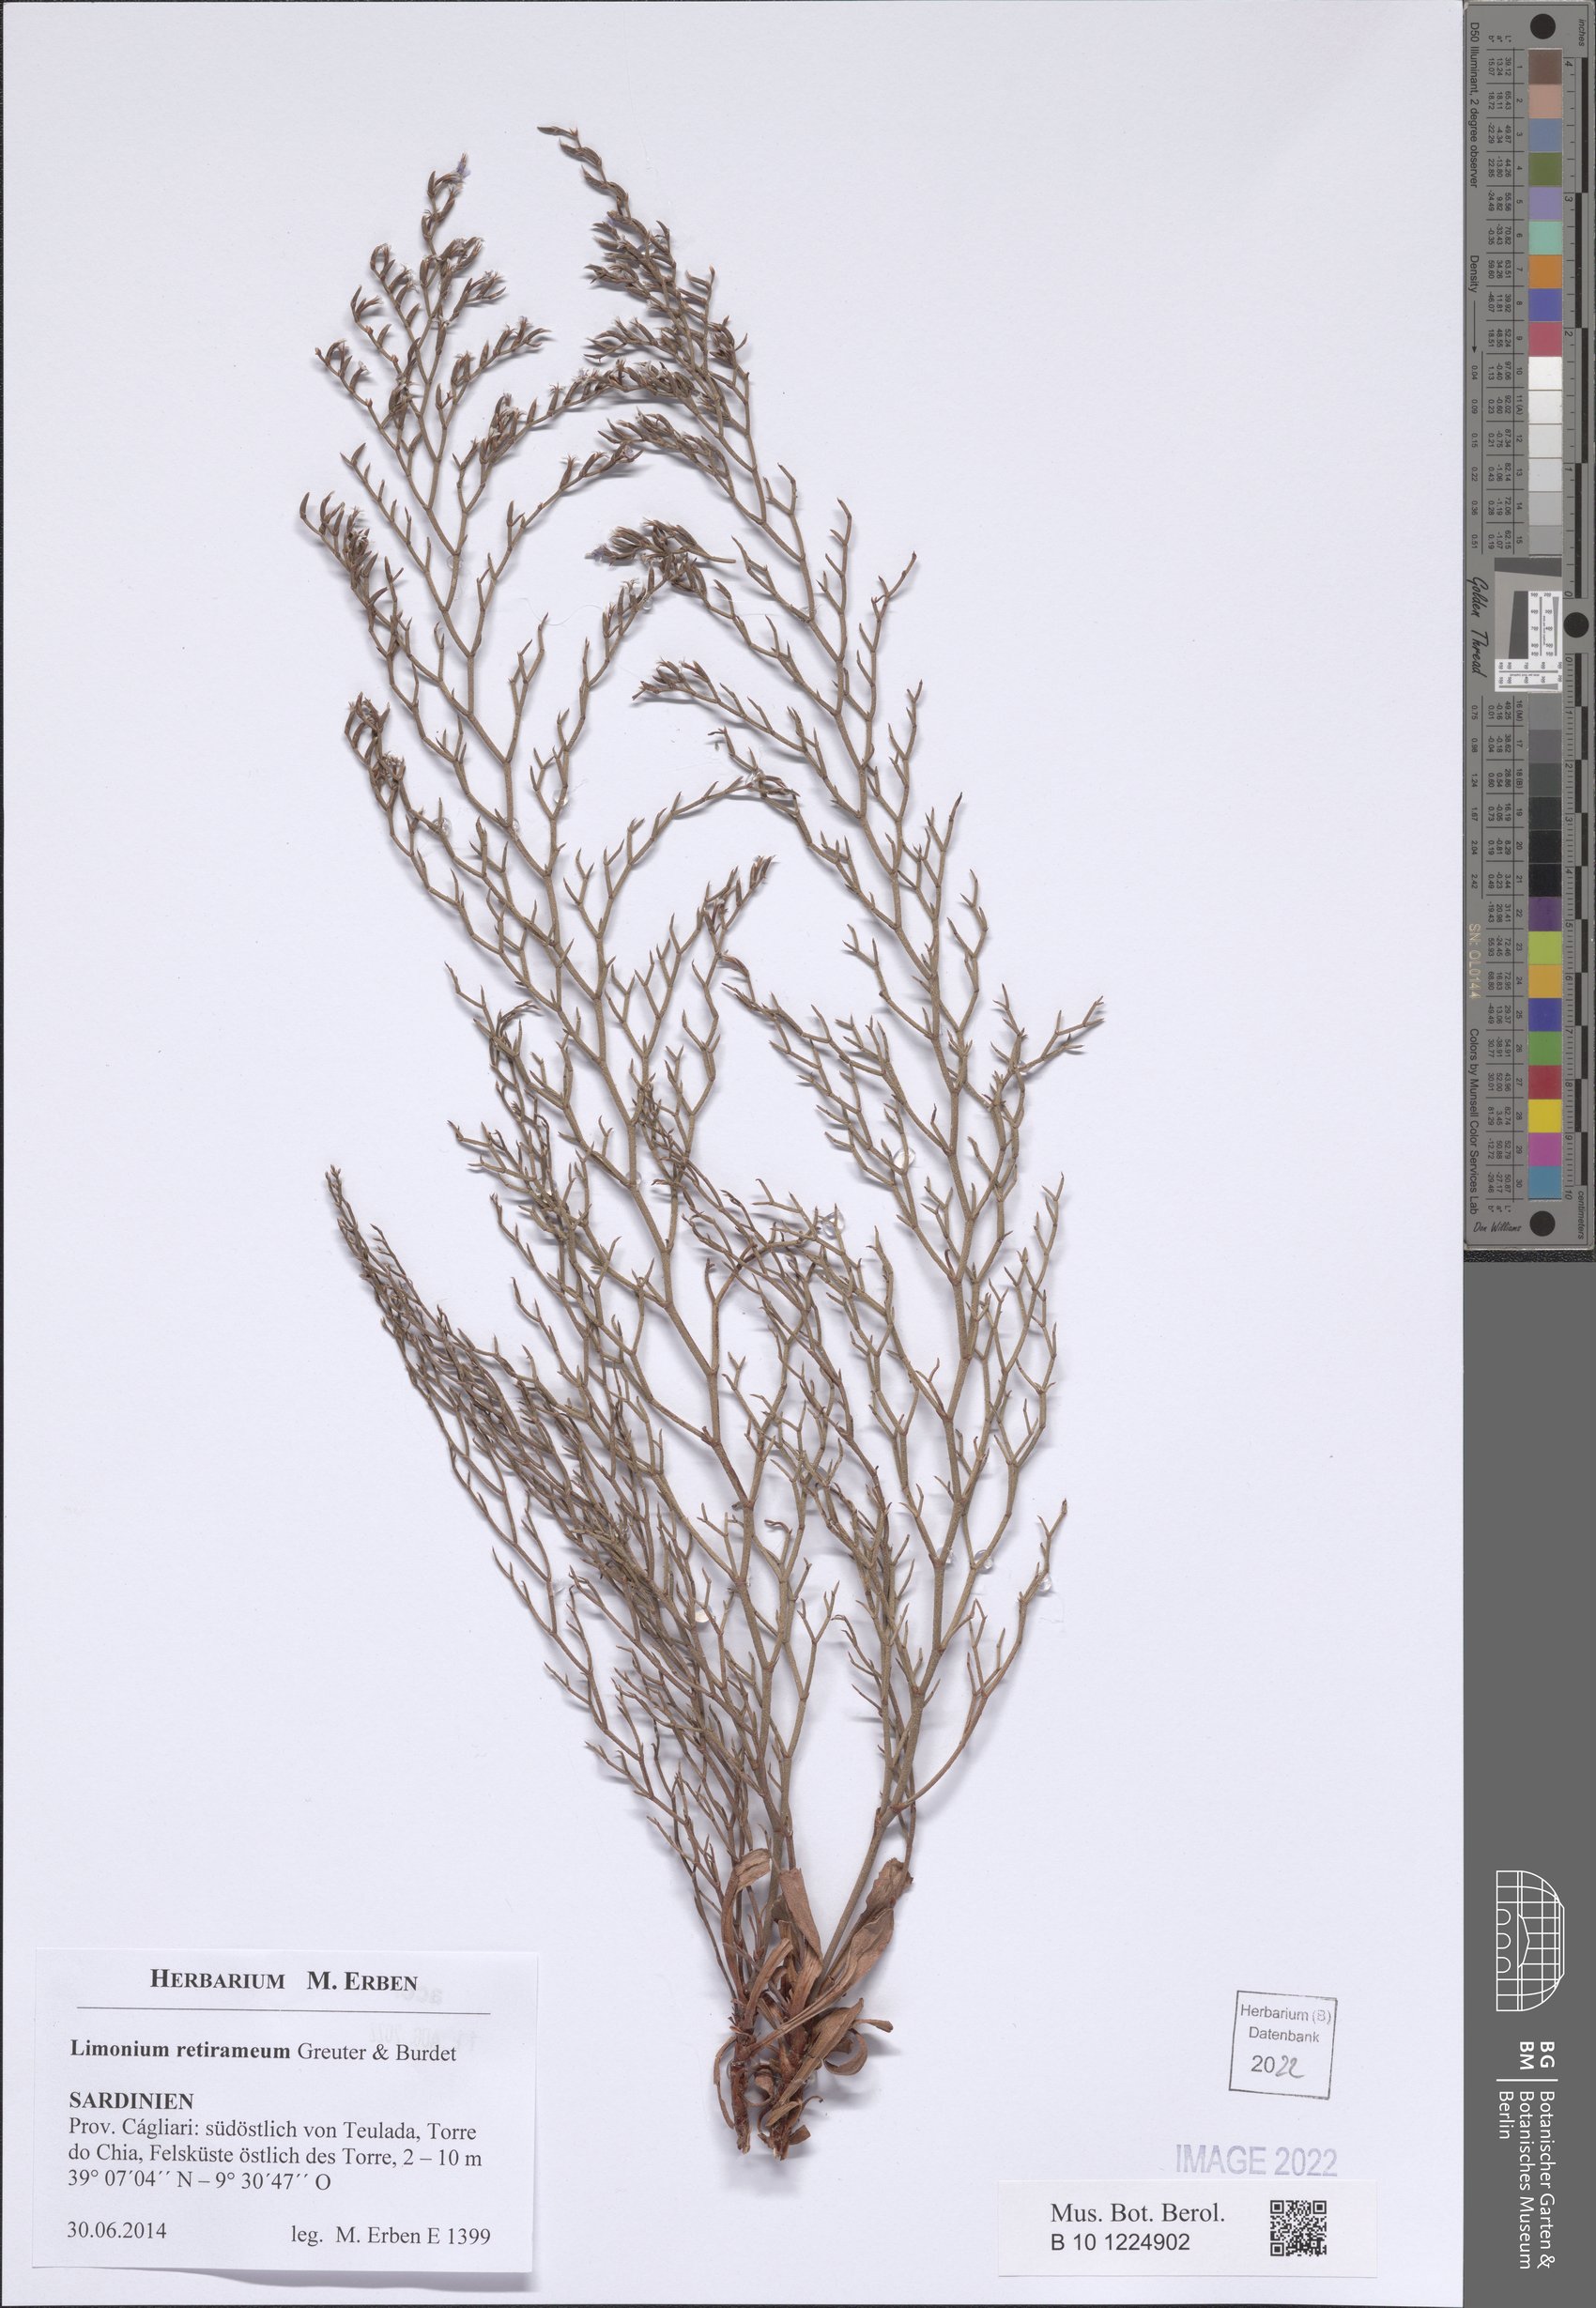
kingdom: Plantae
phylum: Tracheophyta
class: Magnoliopsida
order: Caryophyllales
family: Plumbaginaceae
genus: Limonium
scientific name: Limonium retirameum
